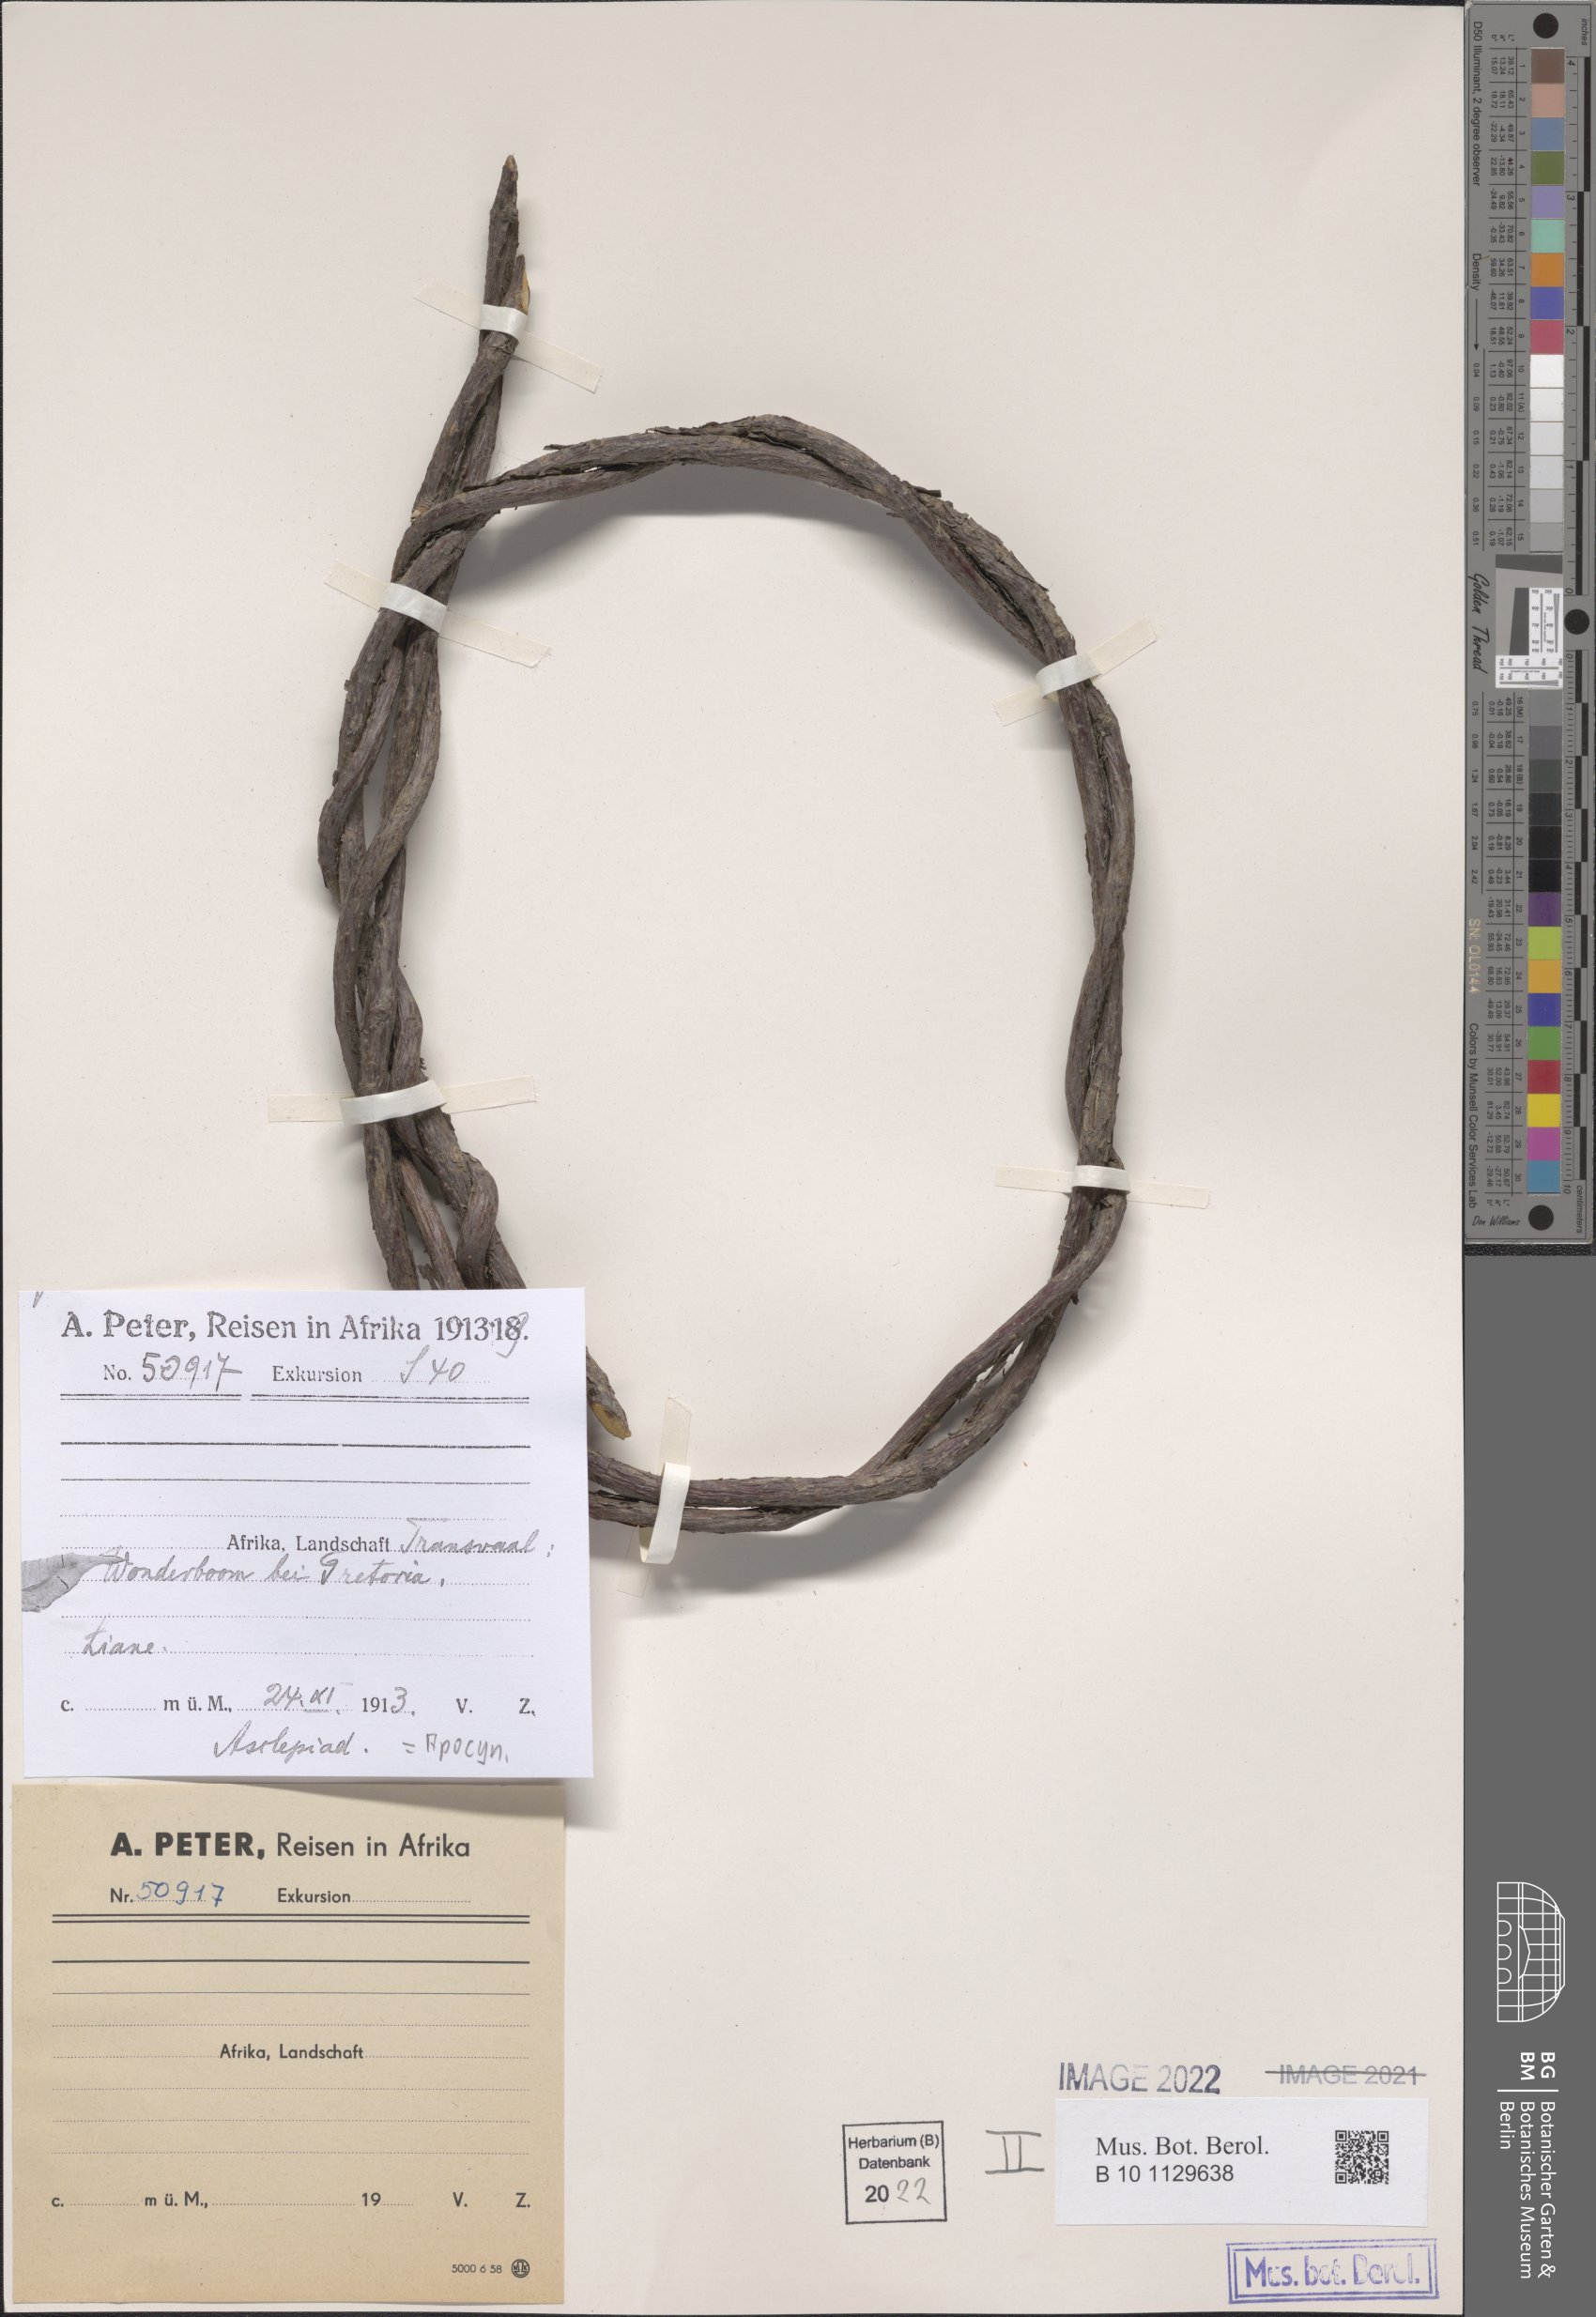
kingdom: Plantae
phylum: Tracheophyta
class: Magnoliopsida
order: Gentianales
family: Apocynaceae
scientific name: Apocynaceae
